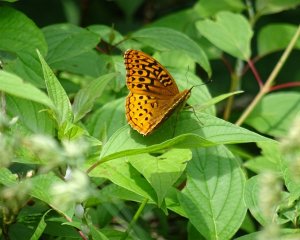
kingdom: Animalia
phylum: Arthropoda
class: Insecta
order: Lepidoptera
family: Nymphalidae
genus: Speyeria
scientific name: Speyeria cybele
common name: Great Spangled Fritillary
